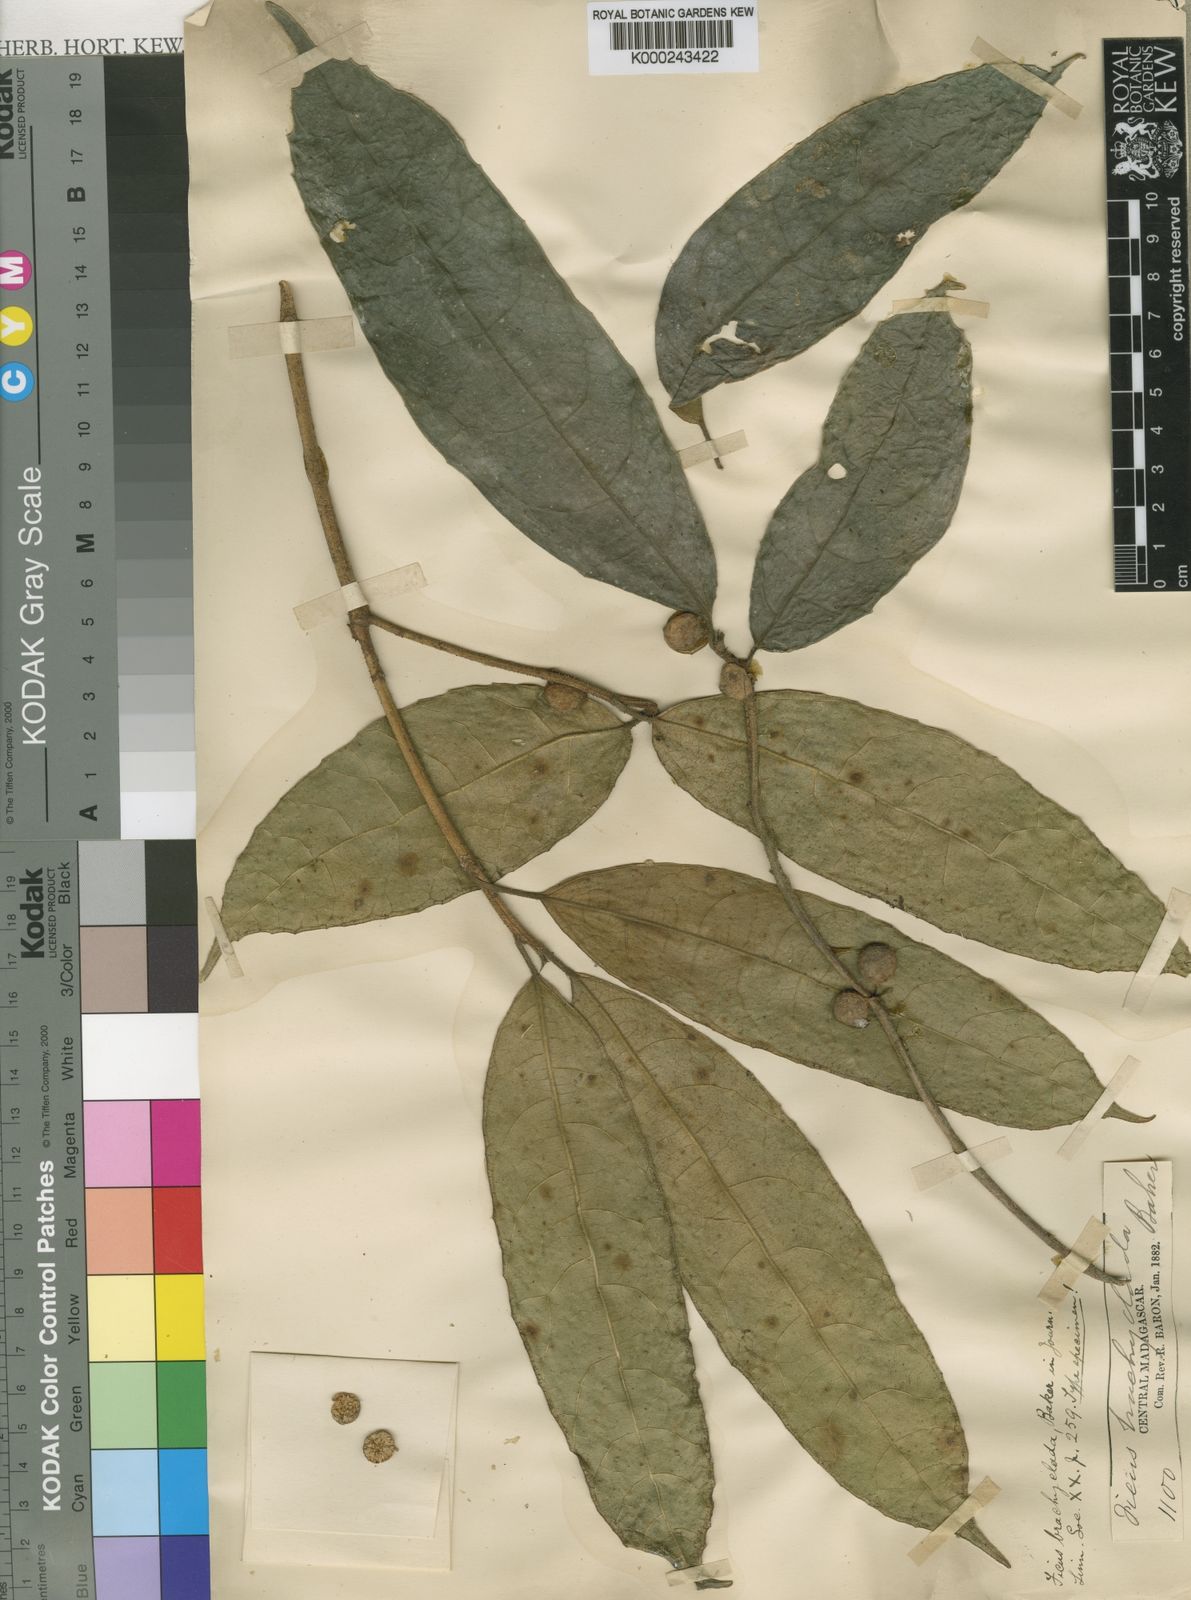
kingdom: Plantae
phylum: Tracheophyta
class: Magnoliopsida
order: Rosales
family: Moraceae
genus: Ficus
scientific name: Ficus brachyclada
